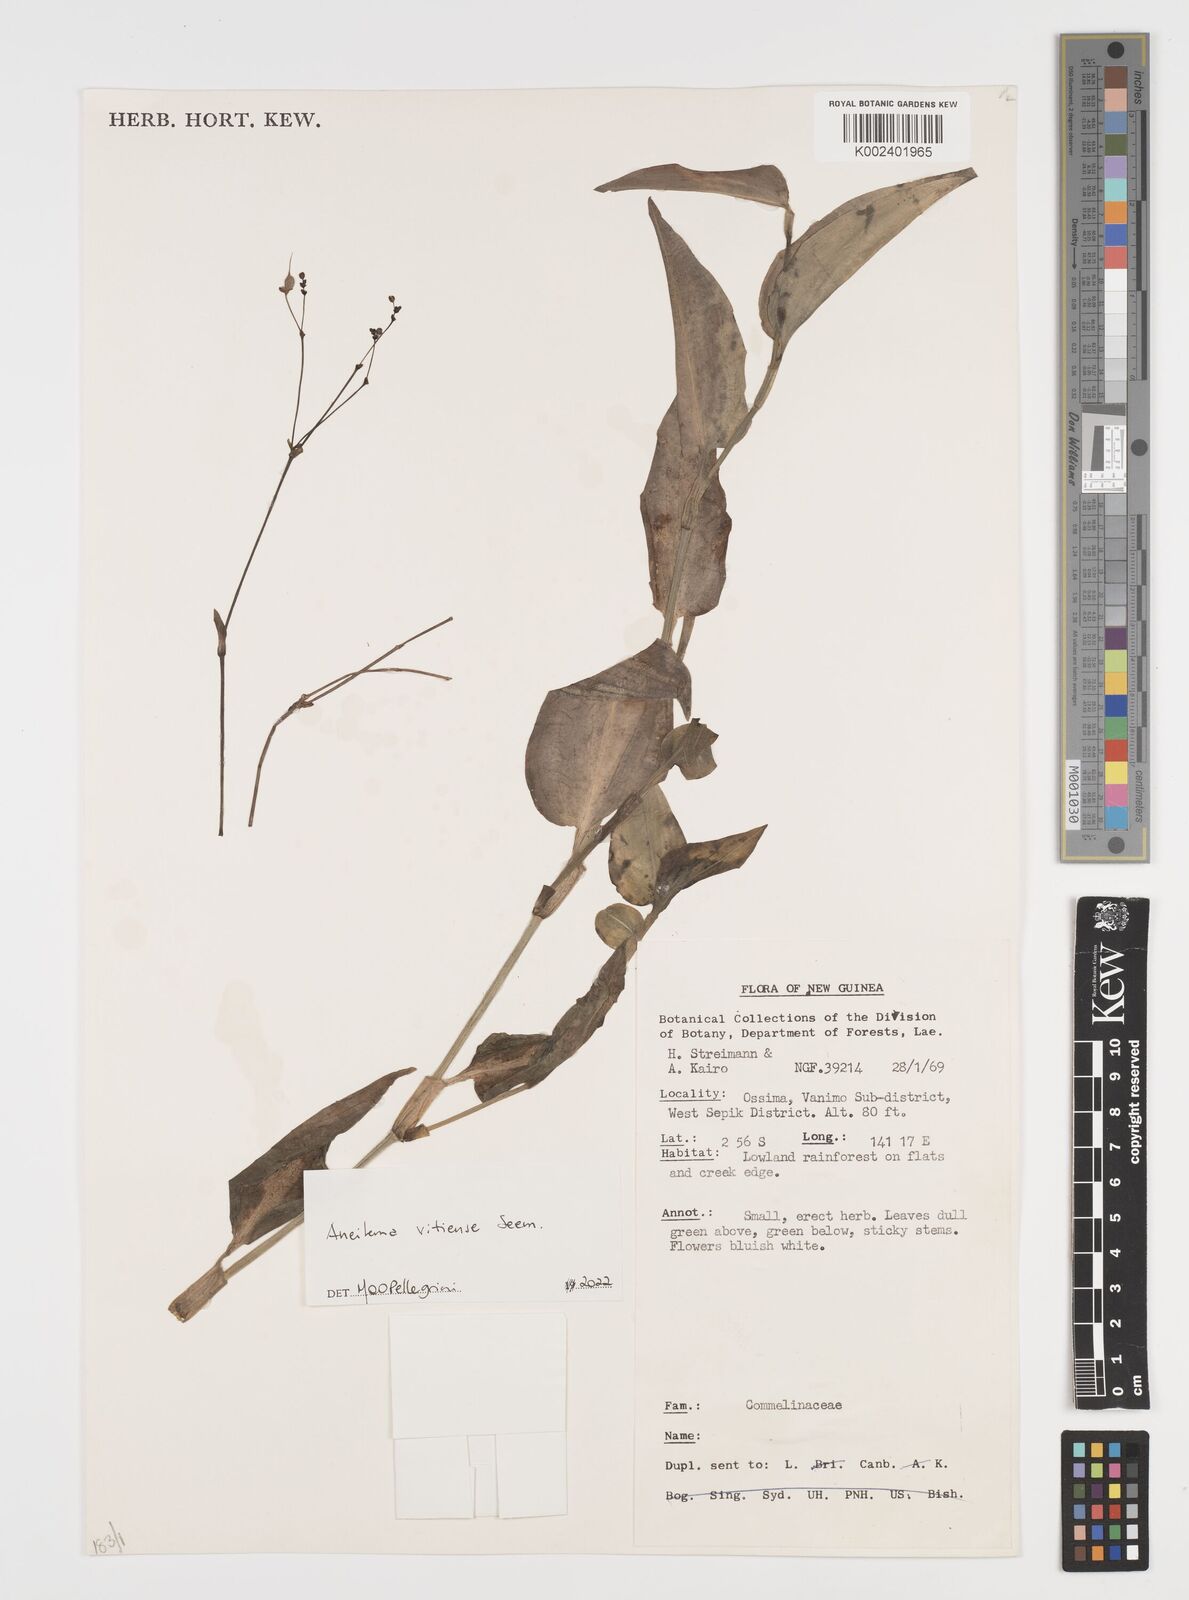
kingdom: Plantae
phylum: Tracheophyta
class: Liliopsida
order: Commelinales
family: Commelinaceae
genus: Rhopalephora
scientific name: Rhopalephora vitiensis
